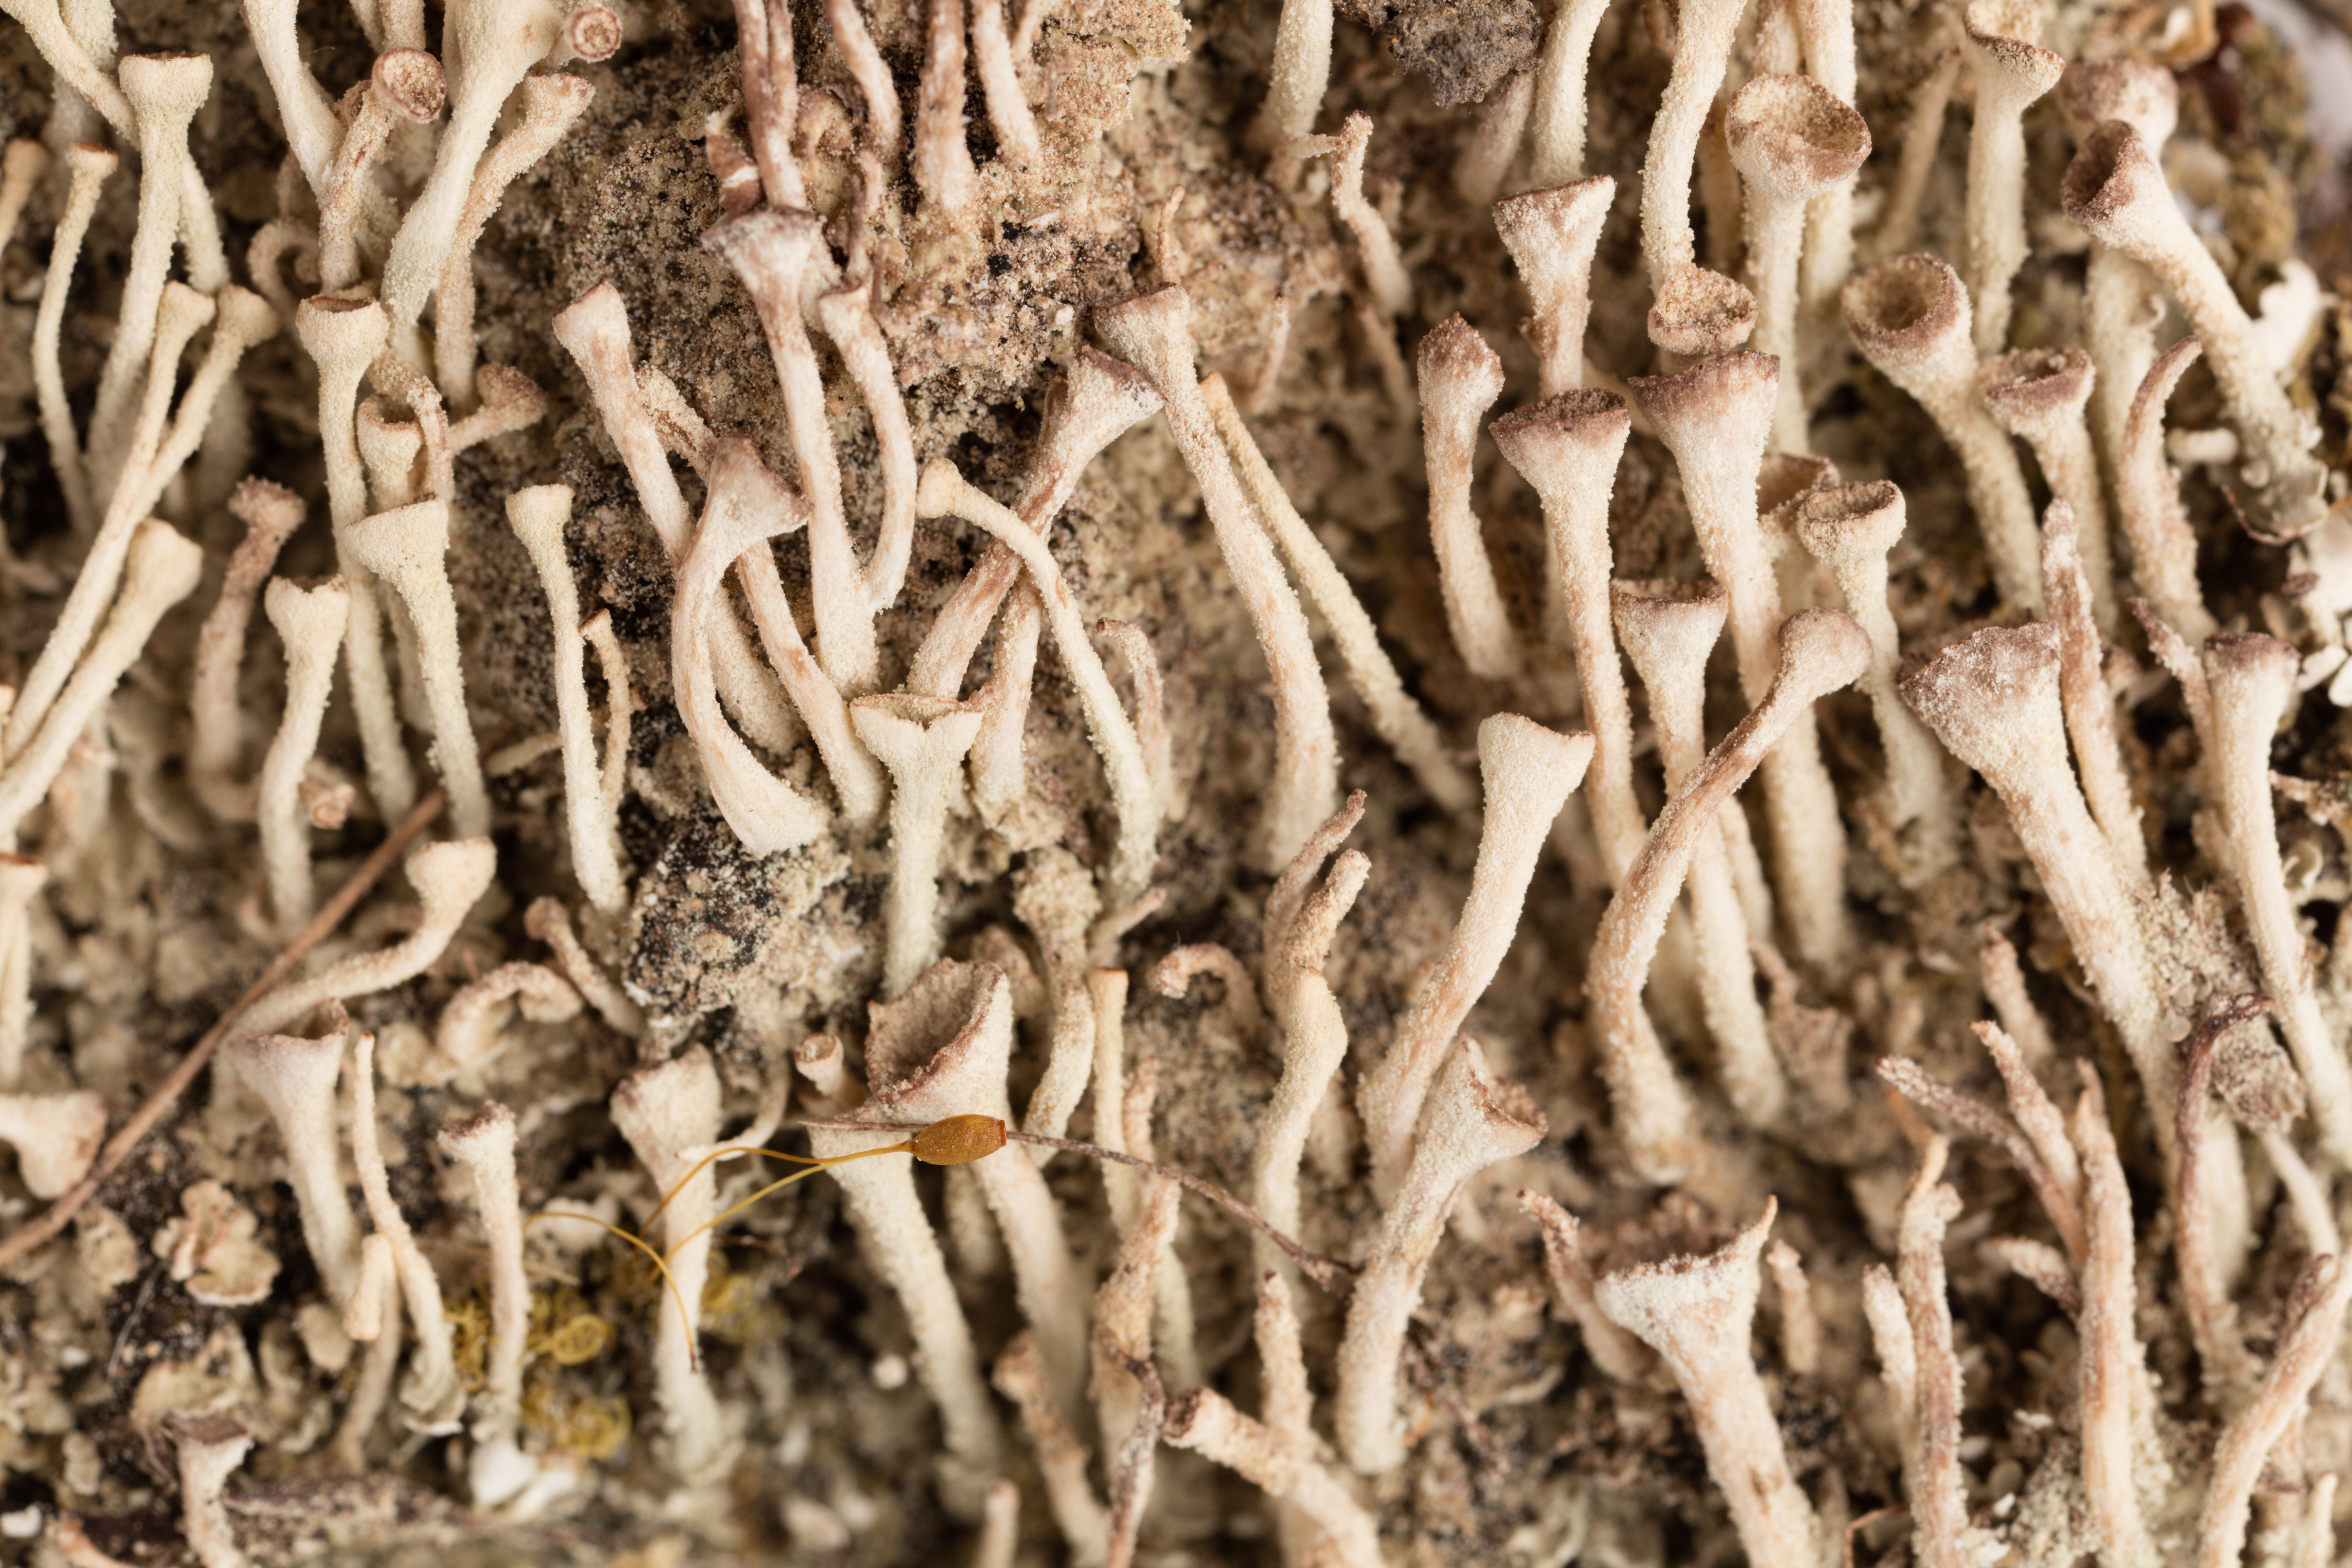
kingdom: Fungi
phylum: Ascomycota
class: Lecanoromycetes
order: Lecanorales
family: Cladoniaceae
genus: Cladonia
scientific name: Cladonia chlorophaea
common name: Mealy pixie cup
